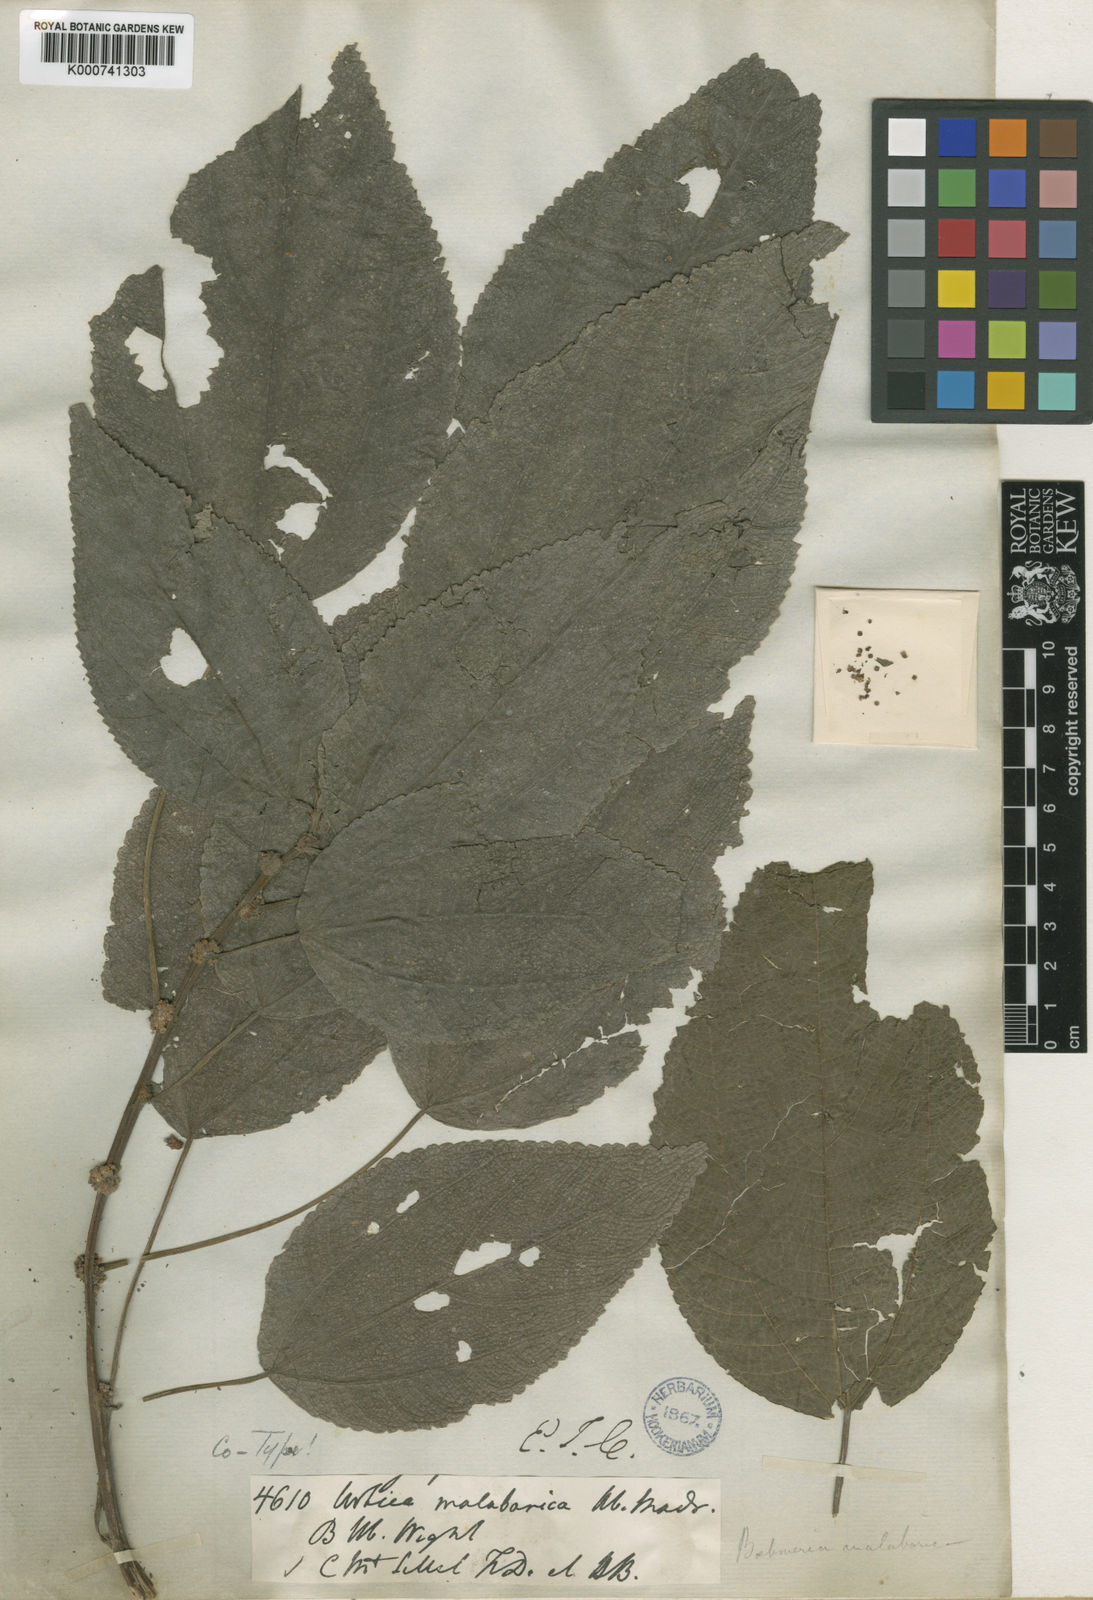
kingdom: Plantae
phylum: Tracheophyta
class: Magnoliopsida
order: Rosales
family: Urticaceae
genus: Boehmeria
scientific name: Boehmeria depauperata
